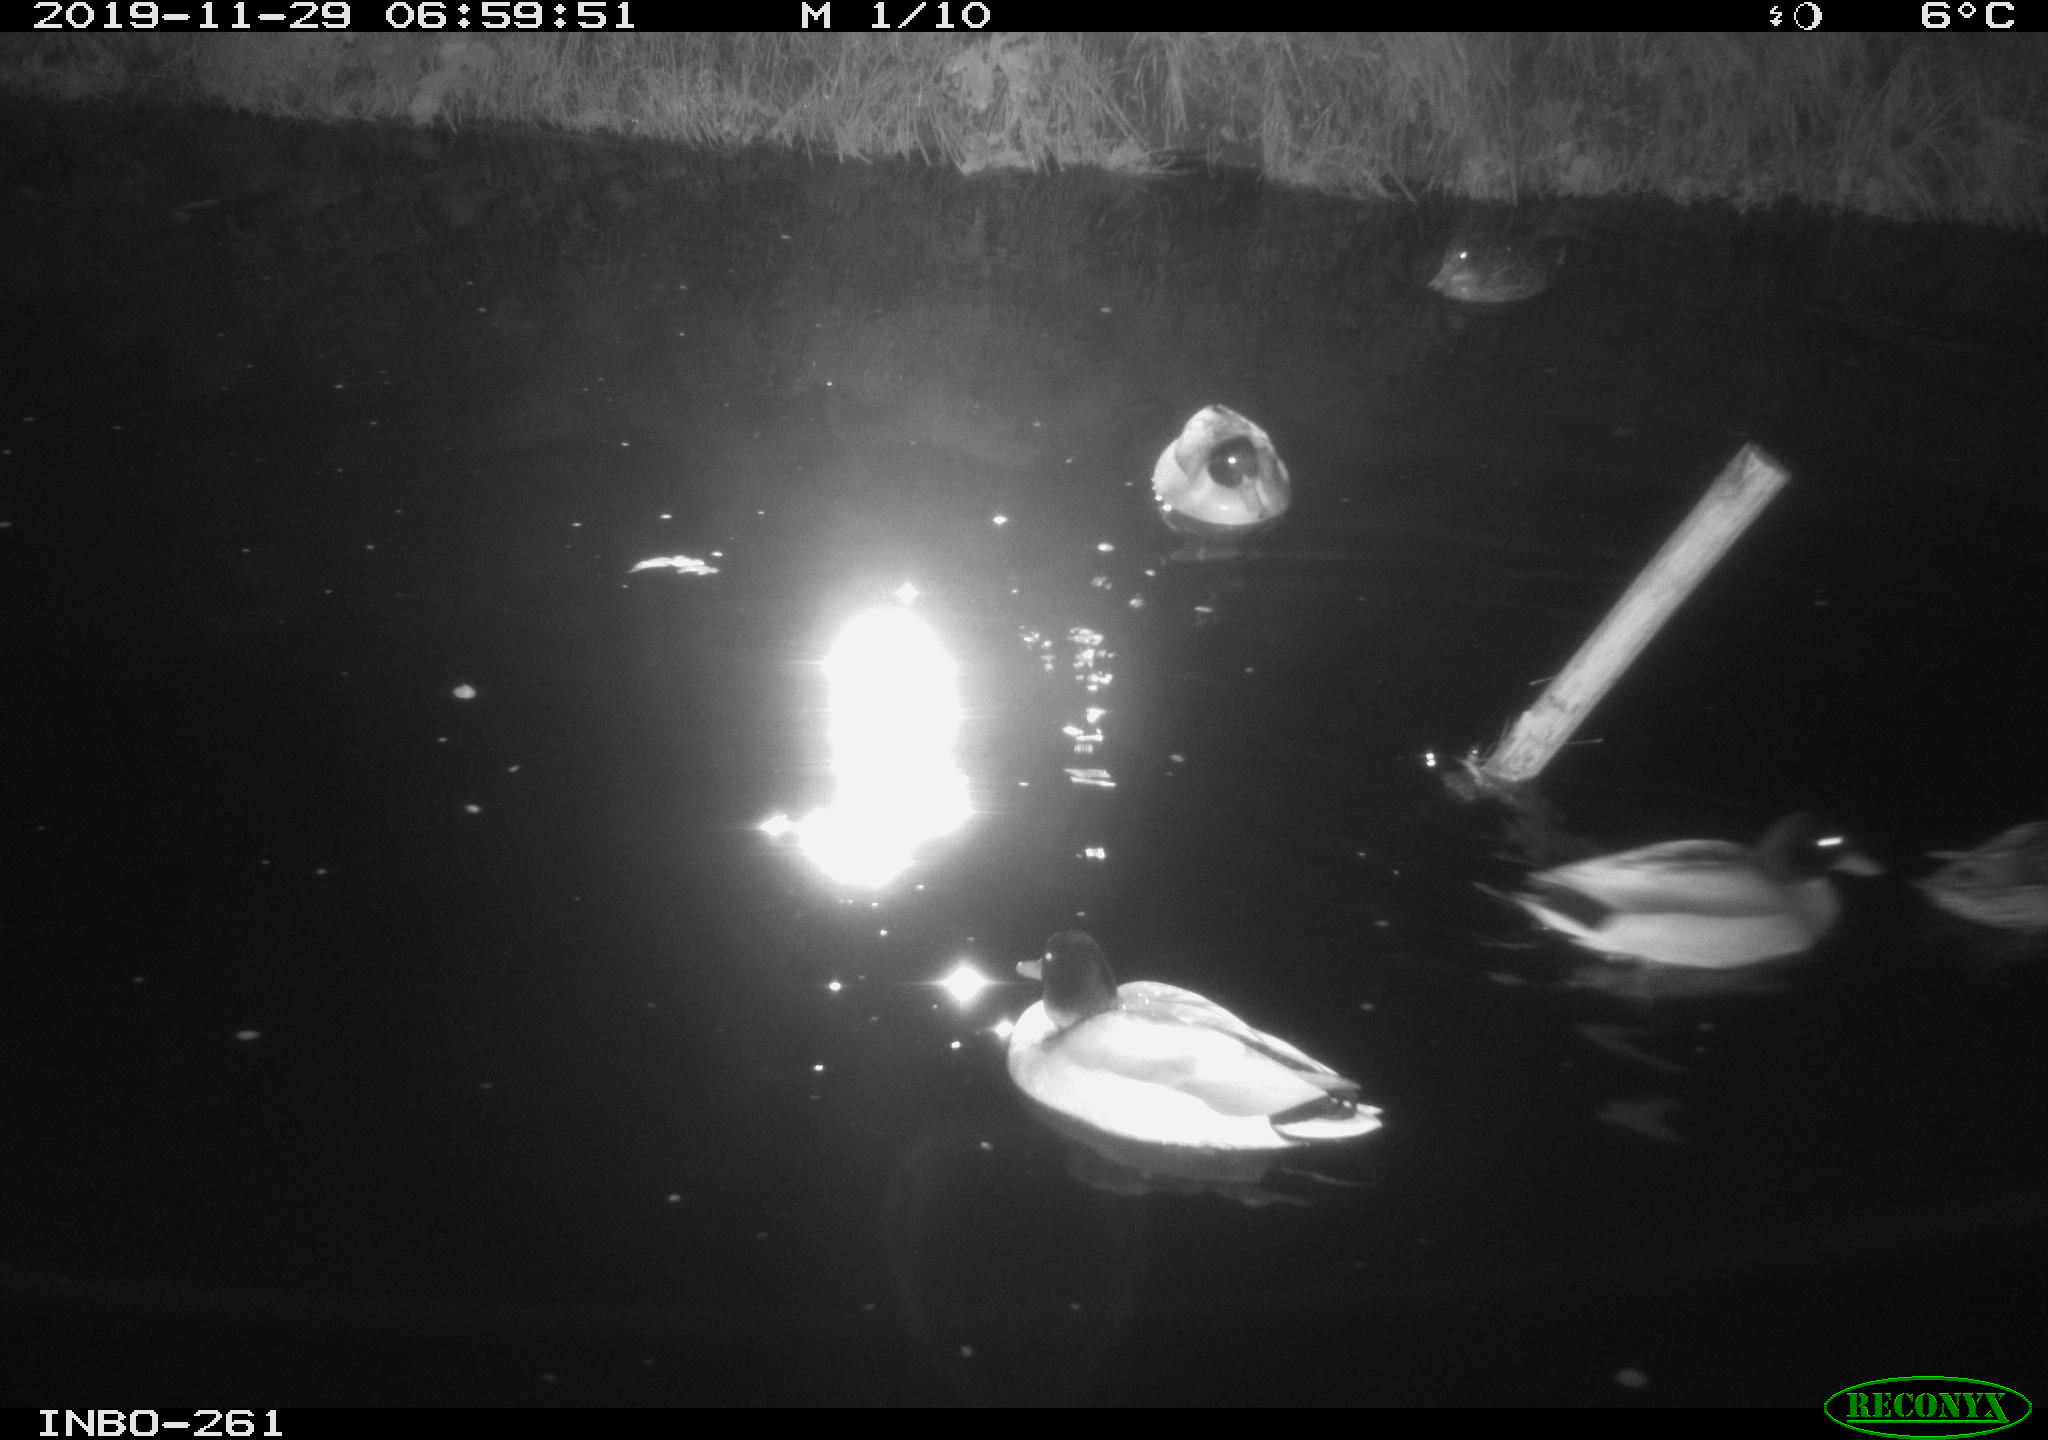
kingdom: Animalia
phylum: Chordata
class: Aves
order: Anseriformes
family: Anatidae
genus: Anas
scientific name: Anas platyrhynchos
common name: Mallard
